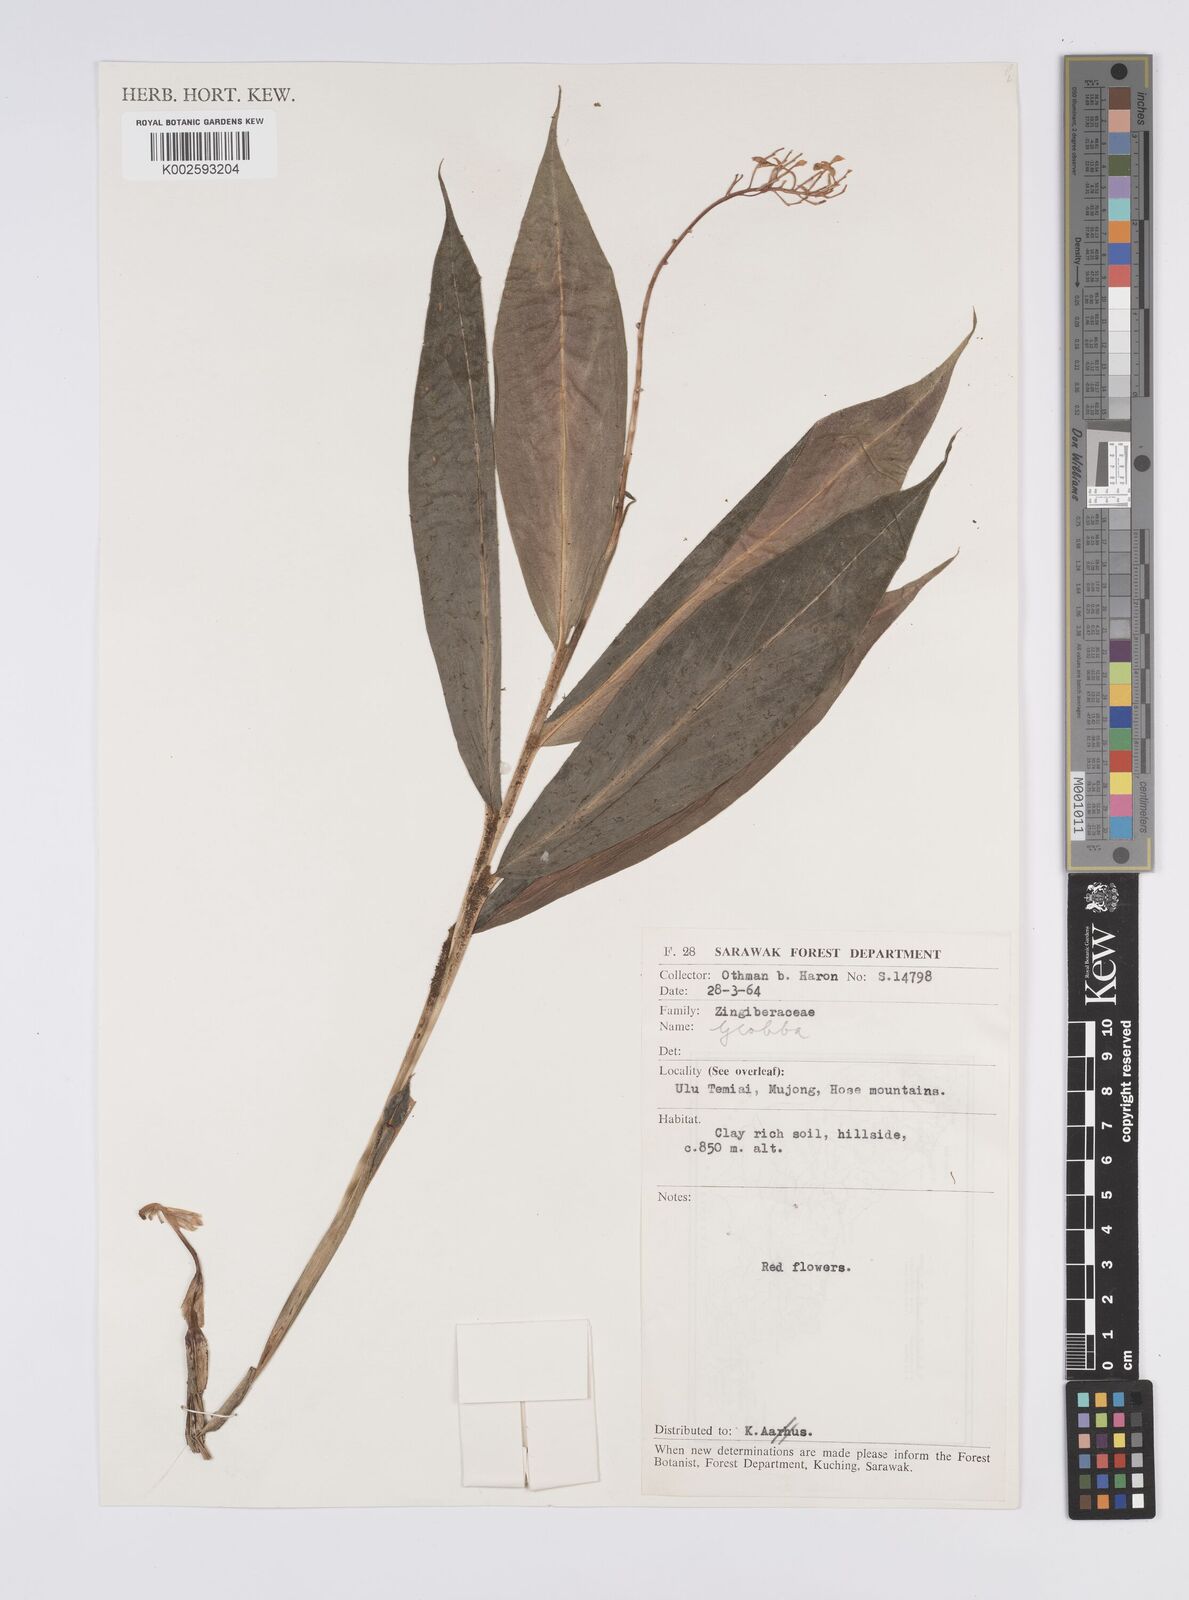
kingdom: Plantae
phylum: Tracheophyta
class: Liliopsida
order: Zingiberales
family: Zingiberaceae
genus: Globba
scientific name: Globba
